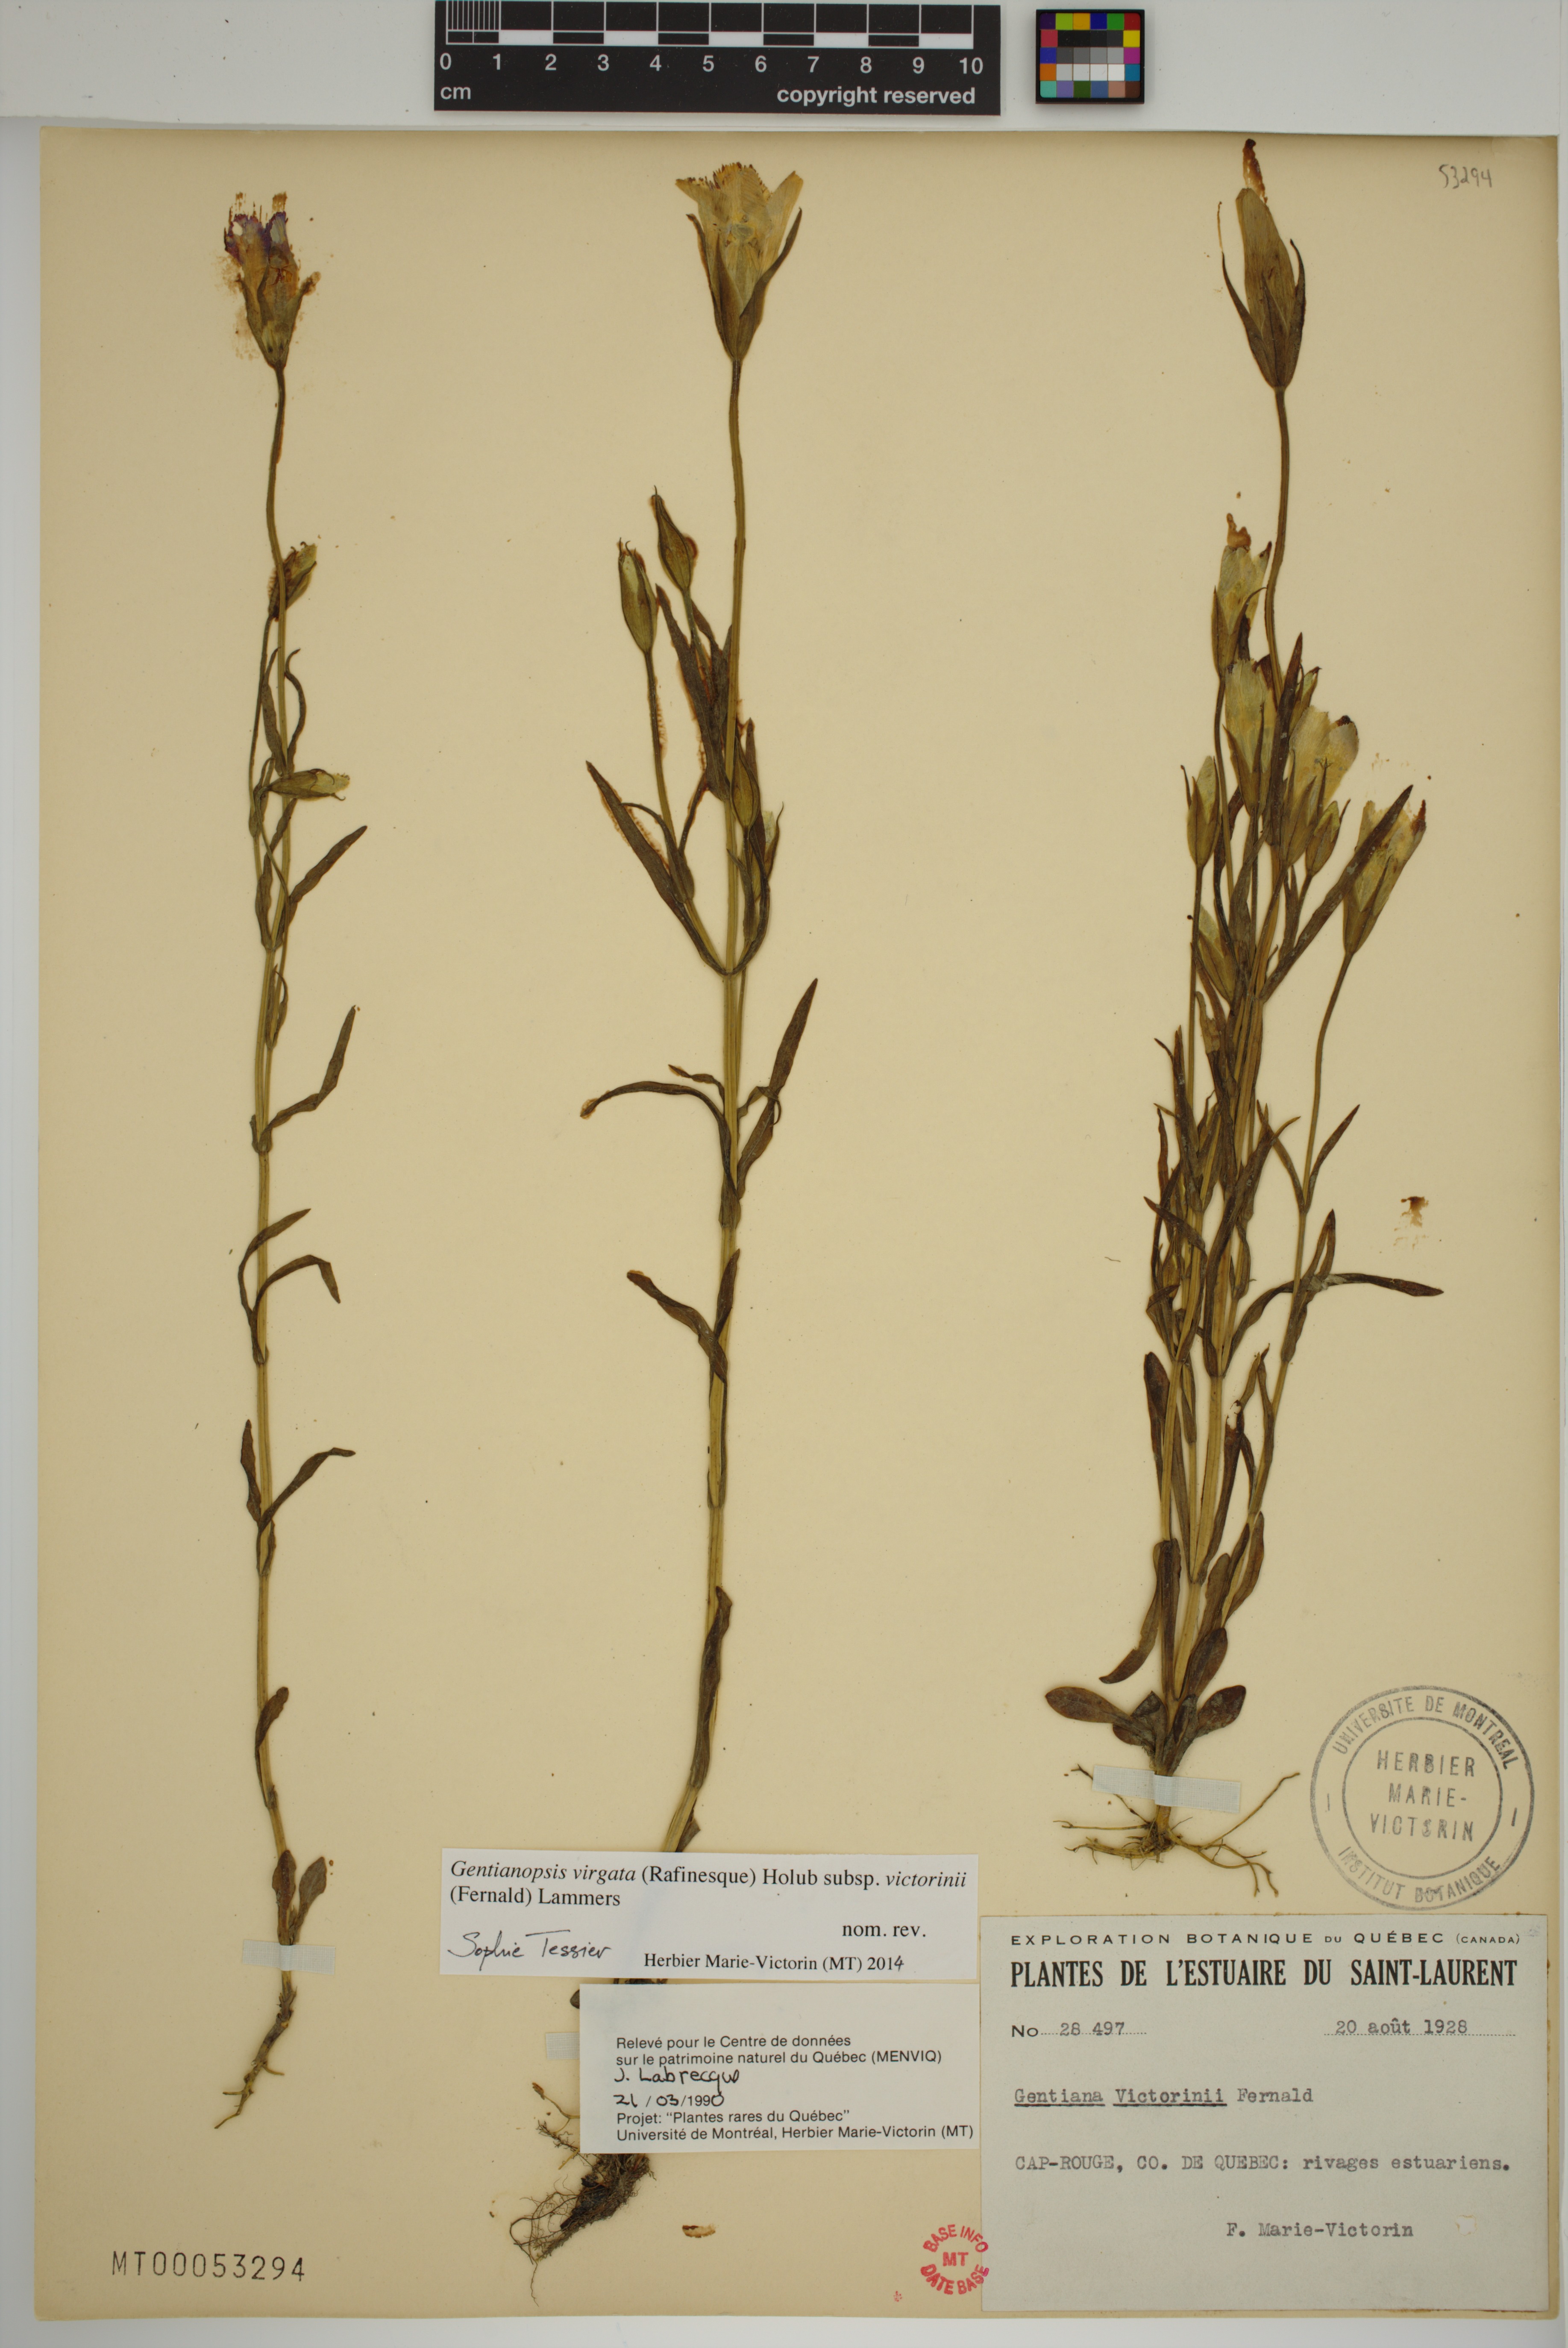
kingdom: Plantae
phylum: Tracheophyta
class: Magnoliopsida
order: Gentianales
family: Gentianaceae
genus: Gentianopsis
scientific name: Gentianopsis victorinii
